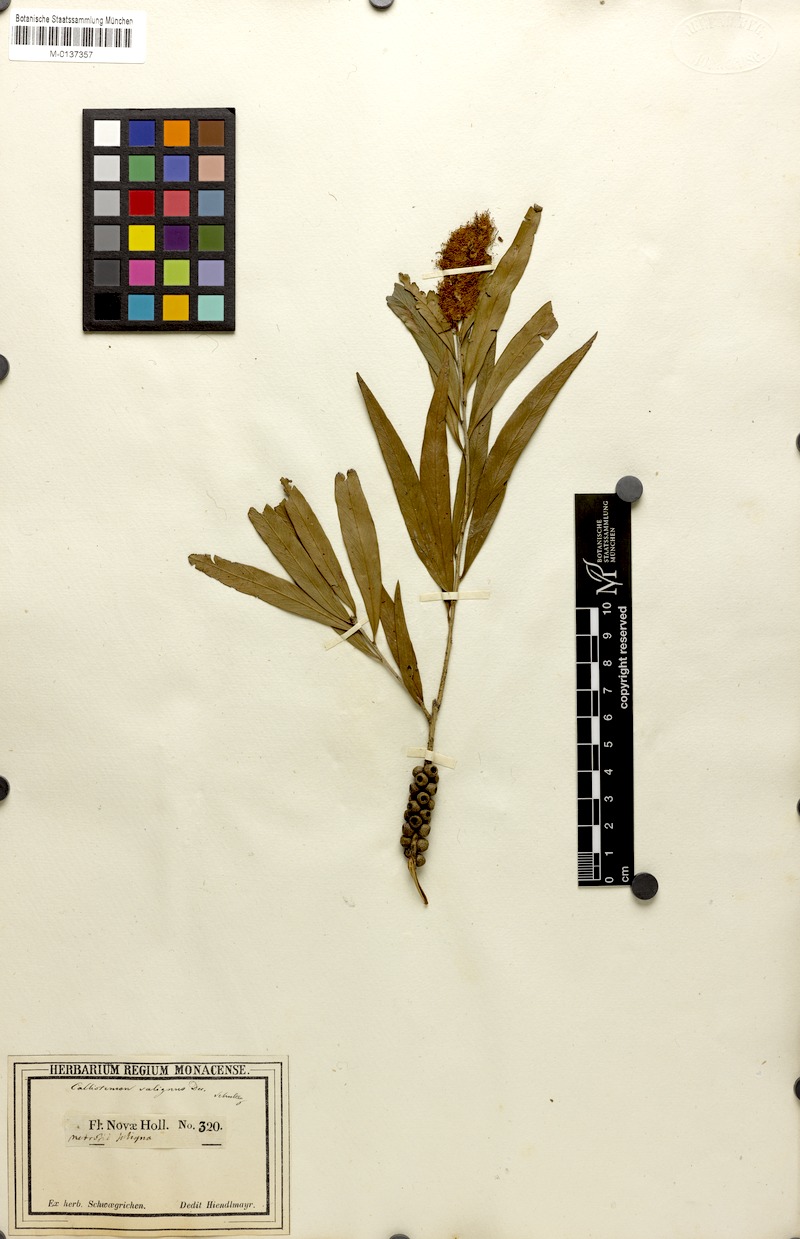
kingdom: Plantae
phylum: Tracheophyta
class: Magnoliopsida
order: Myrtales
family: Myrtaceae
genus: Callistemon
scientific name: Callistemon salignus
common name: White bottlebrush
